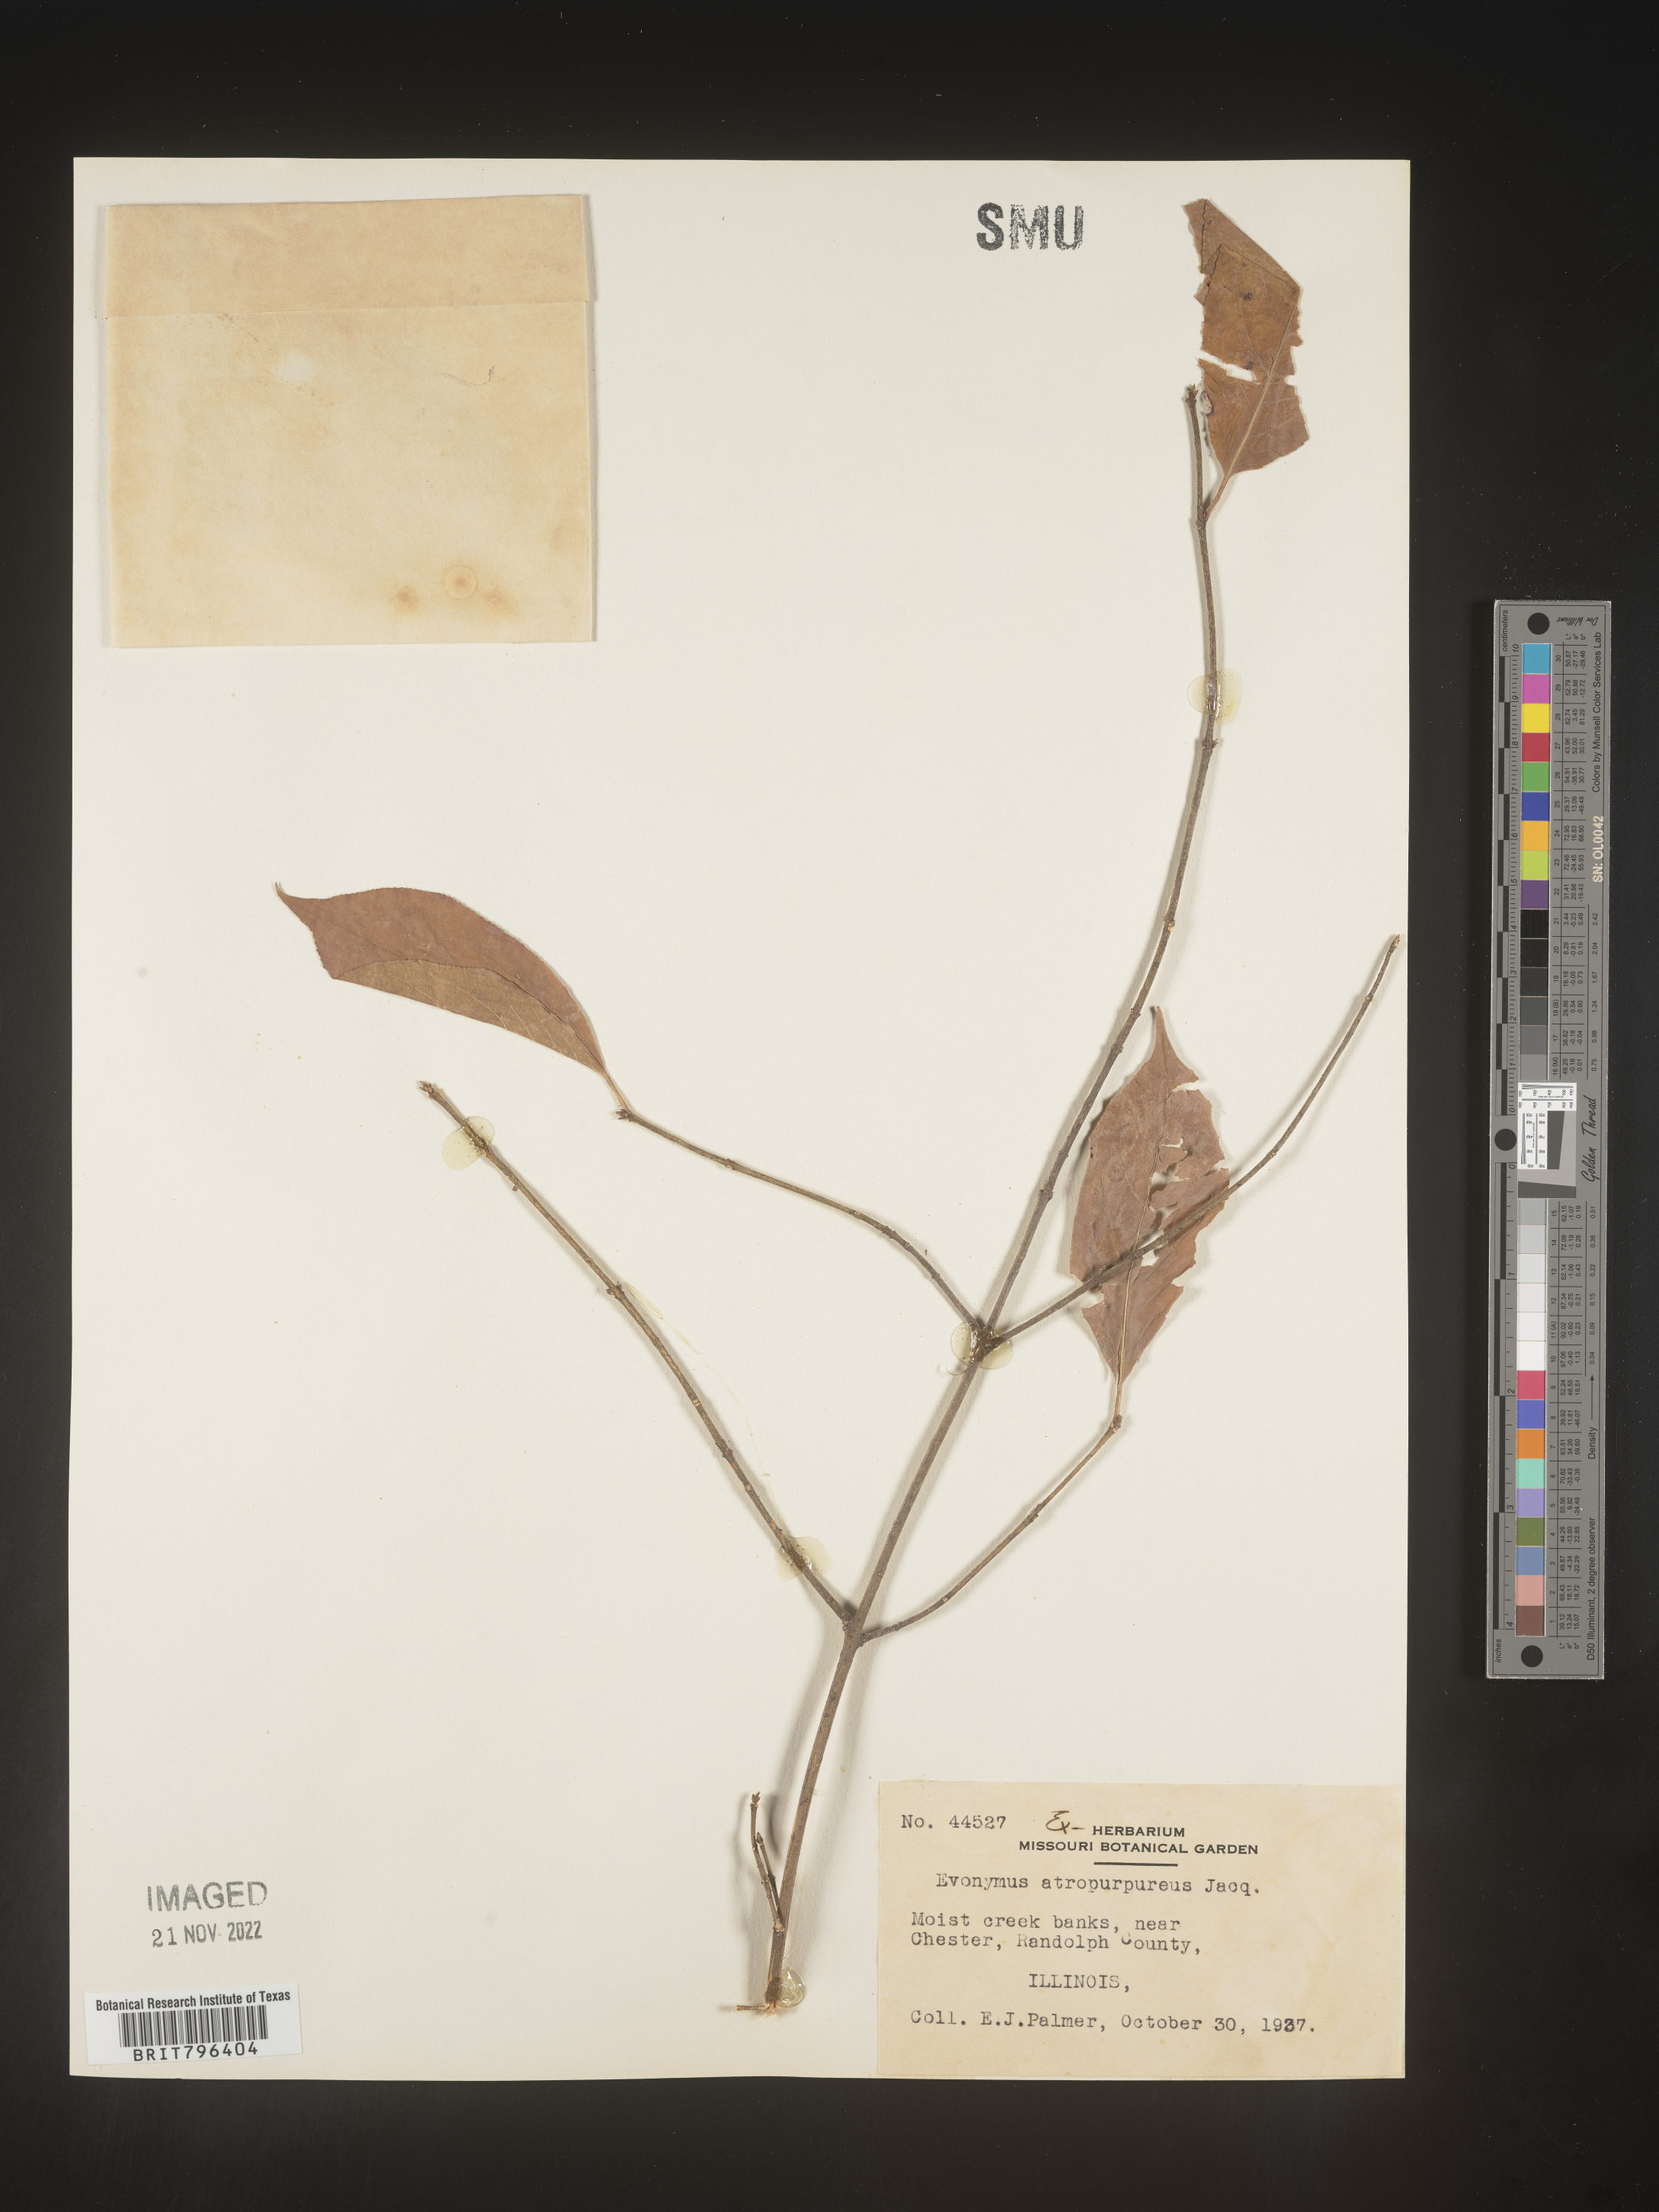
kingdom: Plantae
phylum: Tracheophyta
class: Magnoliopsida
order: Celastrales
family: Celastraceae
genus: Euonymus
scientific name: Euonymus atropurpureus
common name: Eastern wahoo
